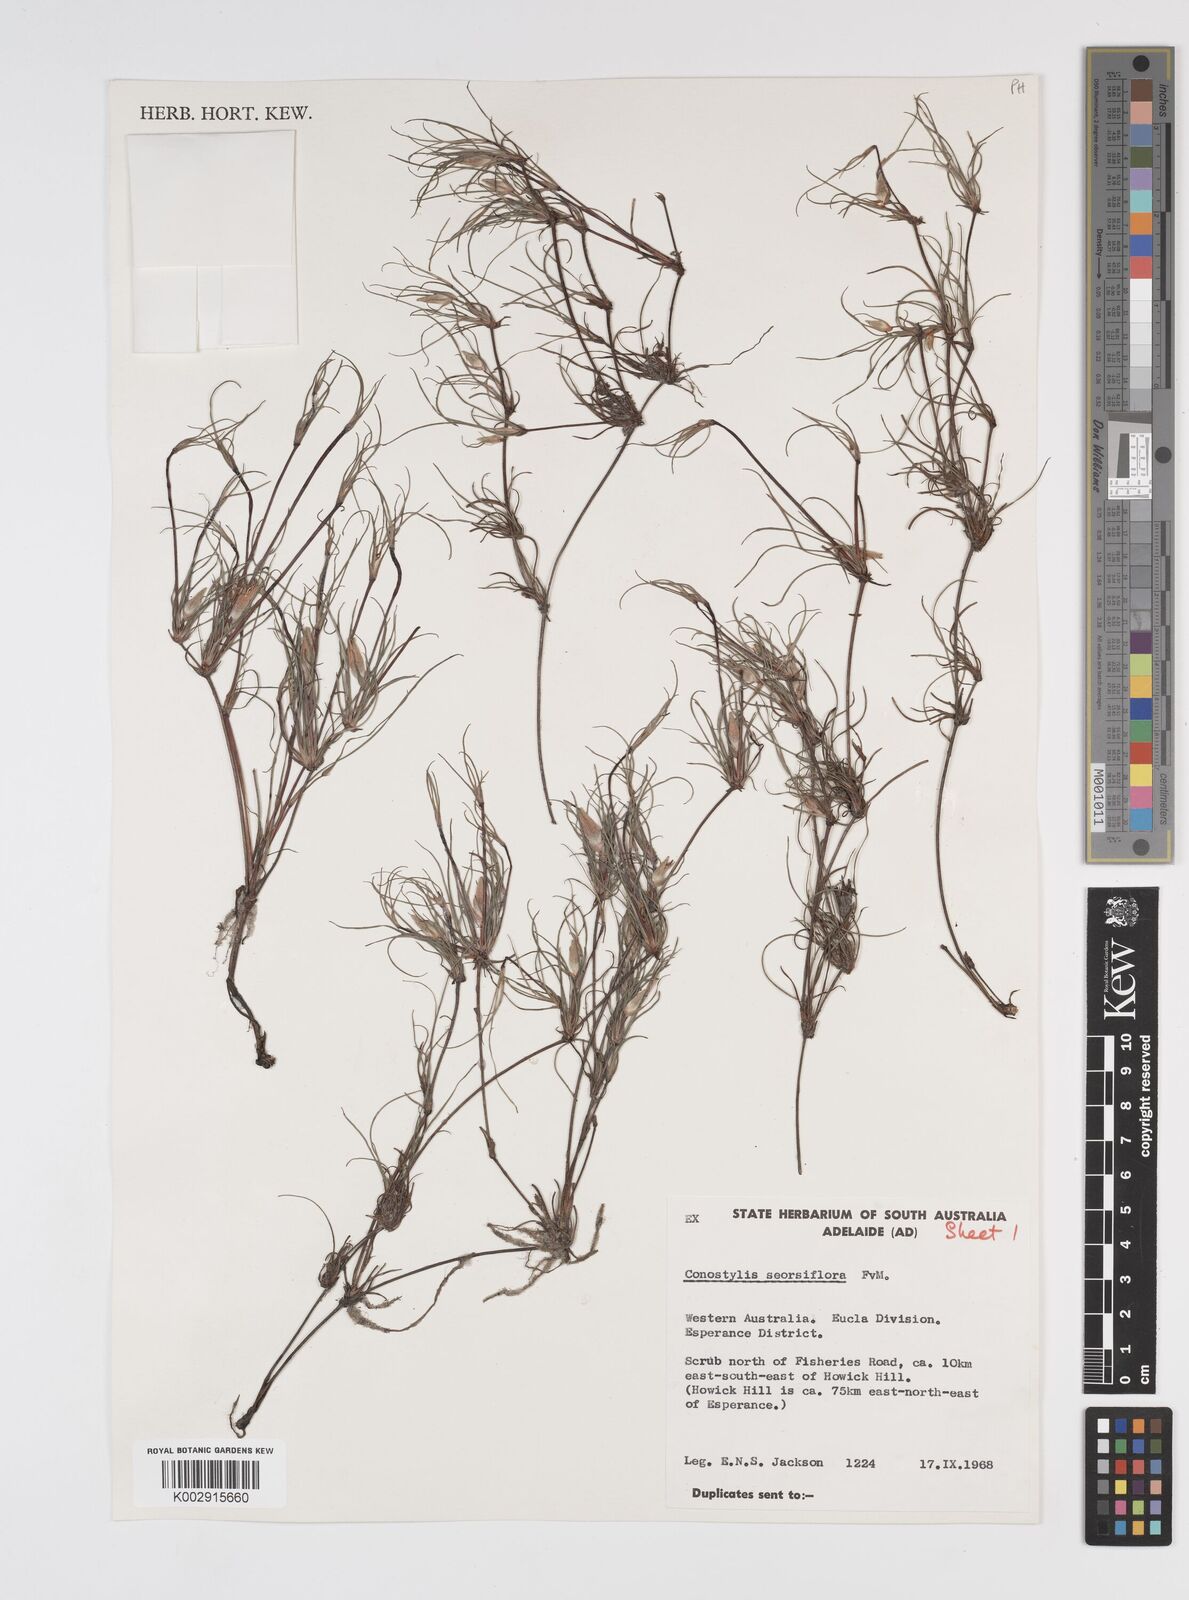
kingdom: Plantae
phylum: Tracheophyta
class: Liliopsida
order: Commelinales
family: Haemodoraceae
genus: Conostylis
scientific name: Conostylis seorsiflora
